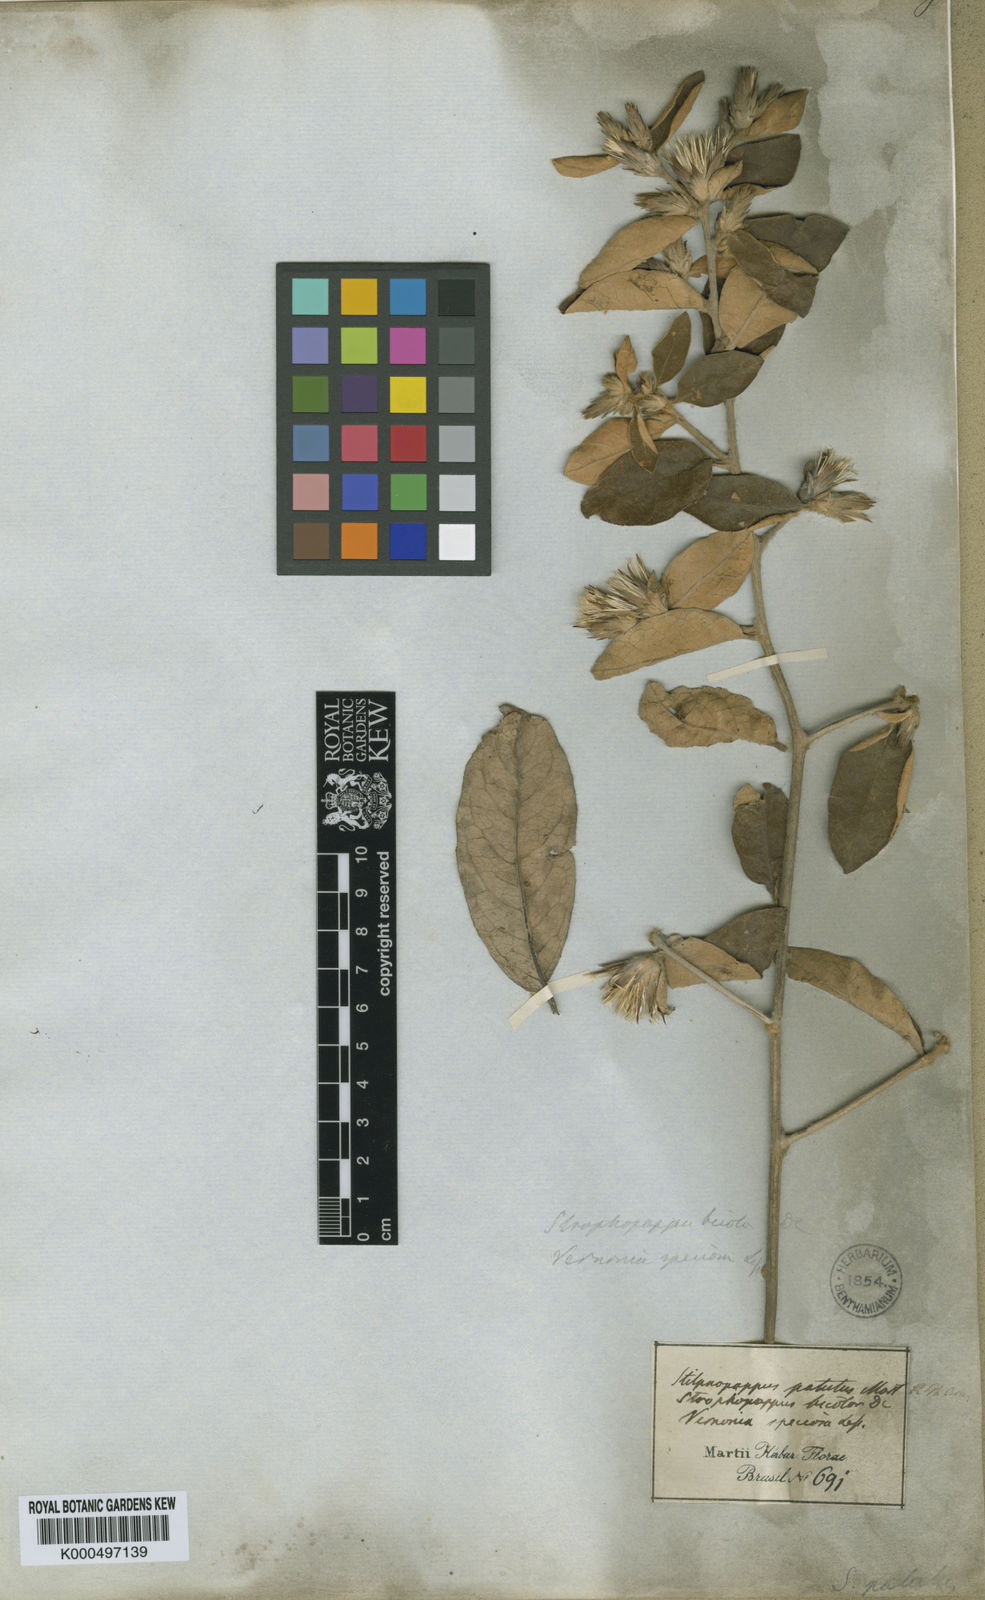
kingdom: Plantae
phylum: Tracheophyta
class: Magnoliopsida
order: Asterales
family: Asteraceae
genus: Stilpnopappus
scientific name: Stilpnopappus speciosus
